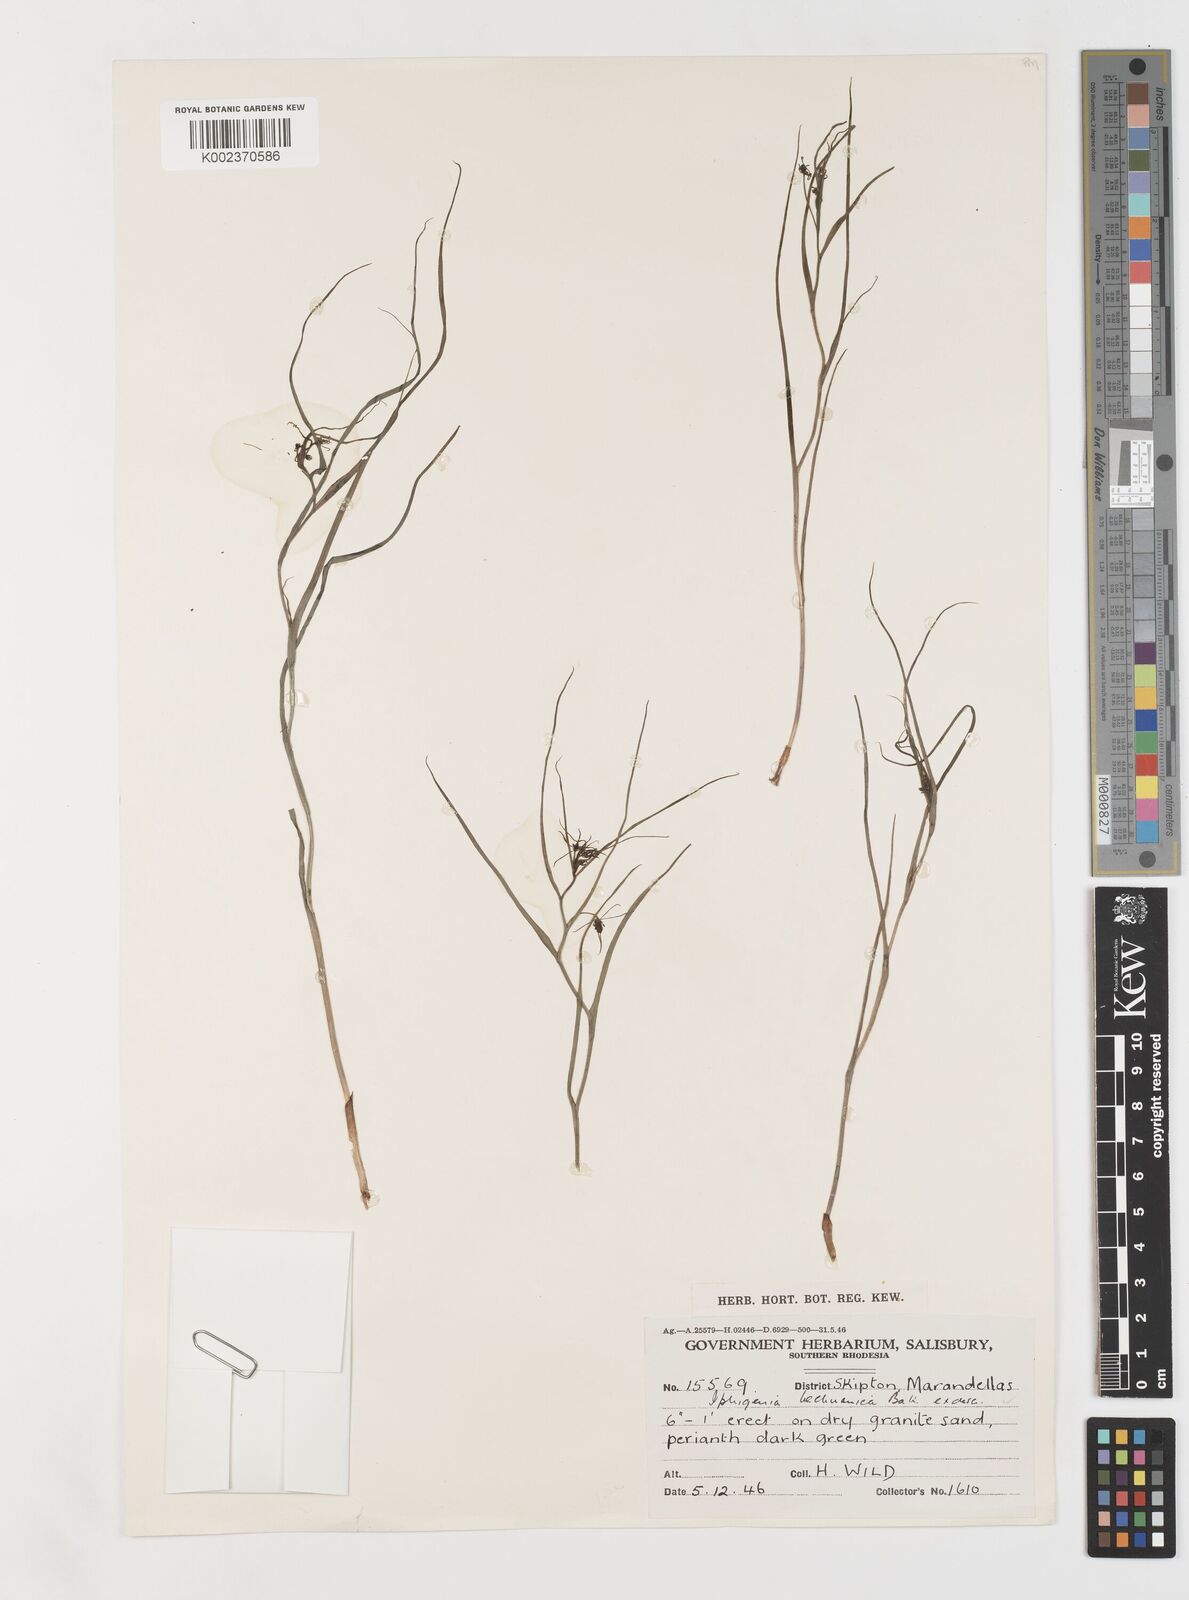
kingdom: Plantae
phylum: Tracheophyta
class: Liliopsida
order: Liliales
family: Colchicaceae
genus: Iphigenia
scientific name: Iphigenia oliveri
